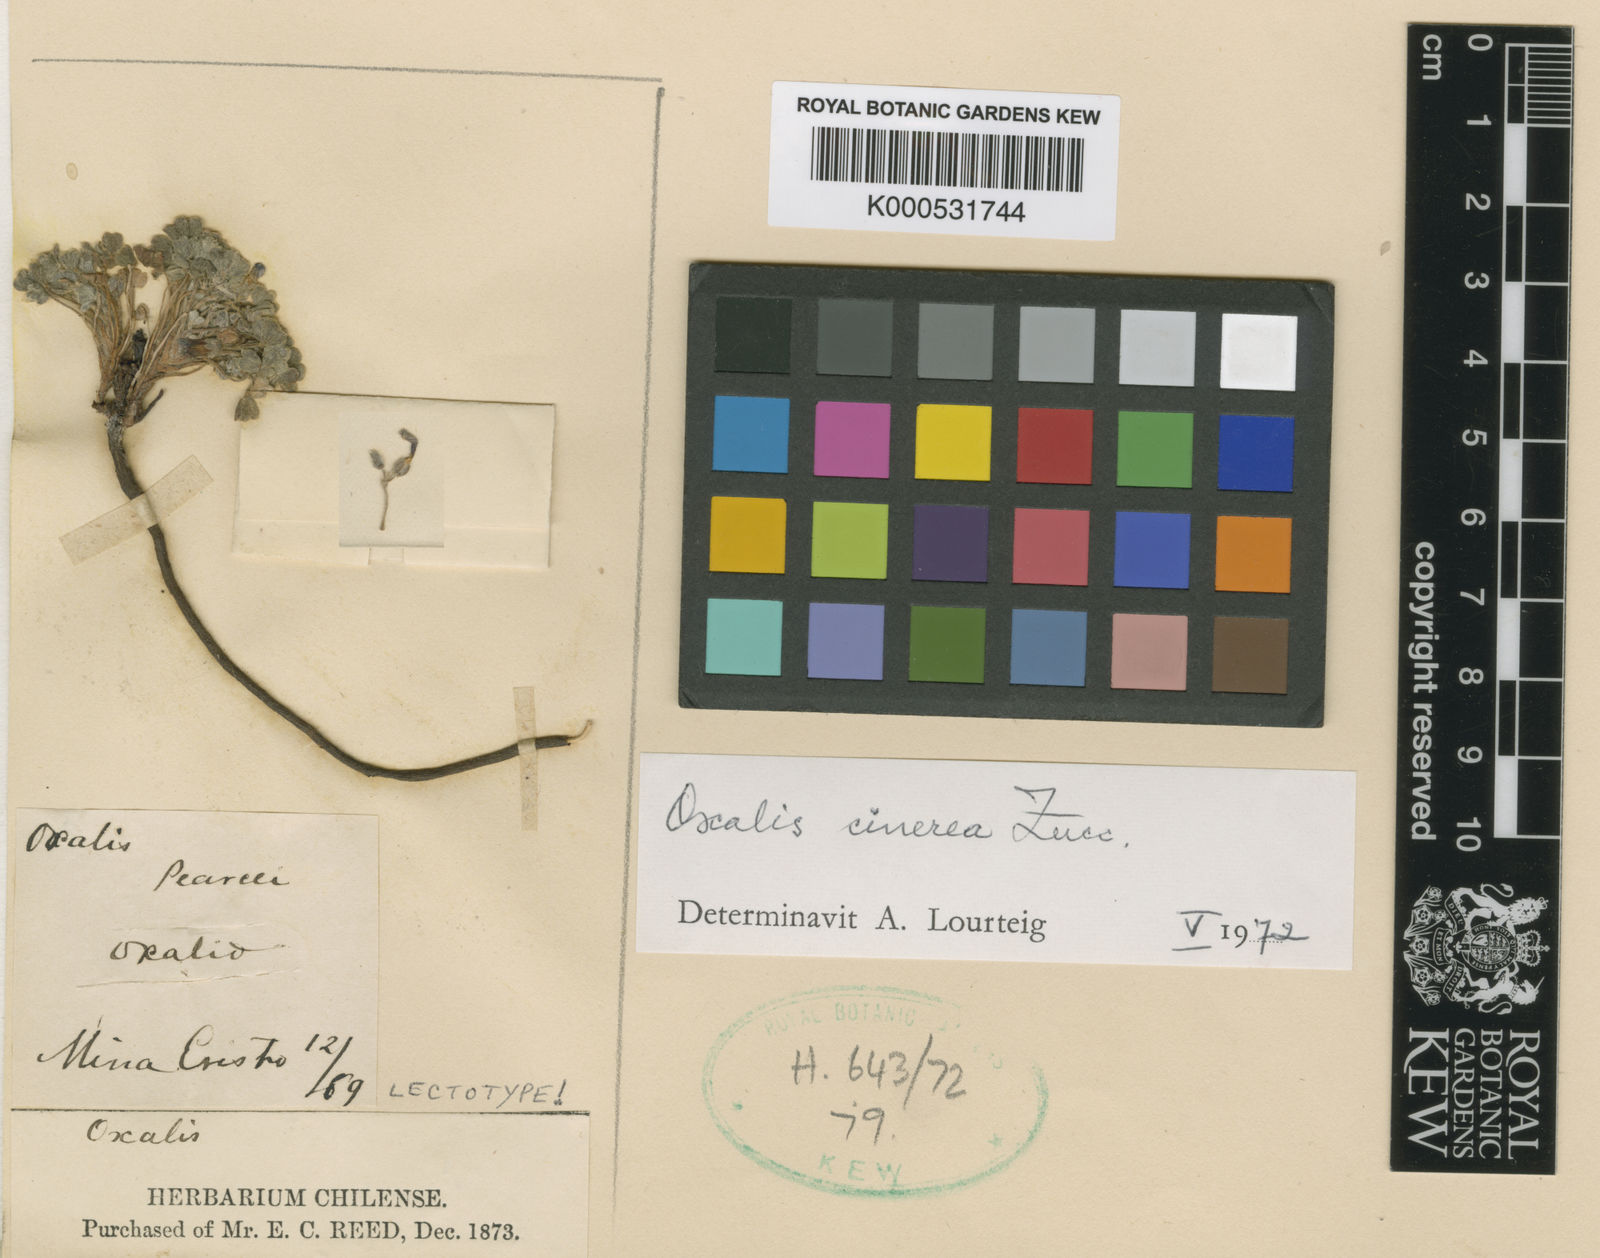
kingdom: Plantae
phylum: Tracheophyta
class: Magnoliopsida
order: Oxalidales
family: Oxalidaceae
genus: Oxalis
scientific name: Oxalis cinerea
